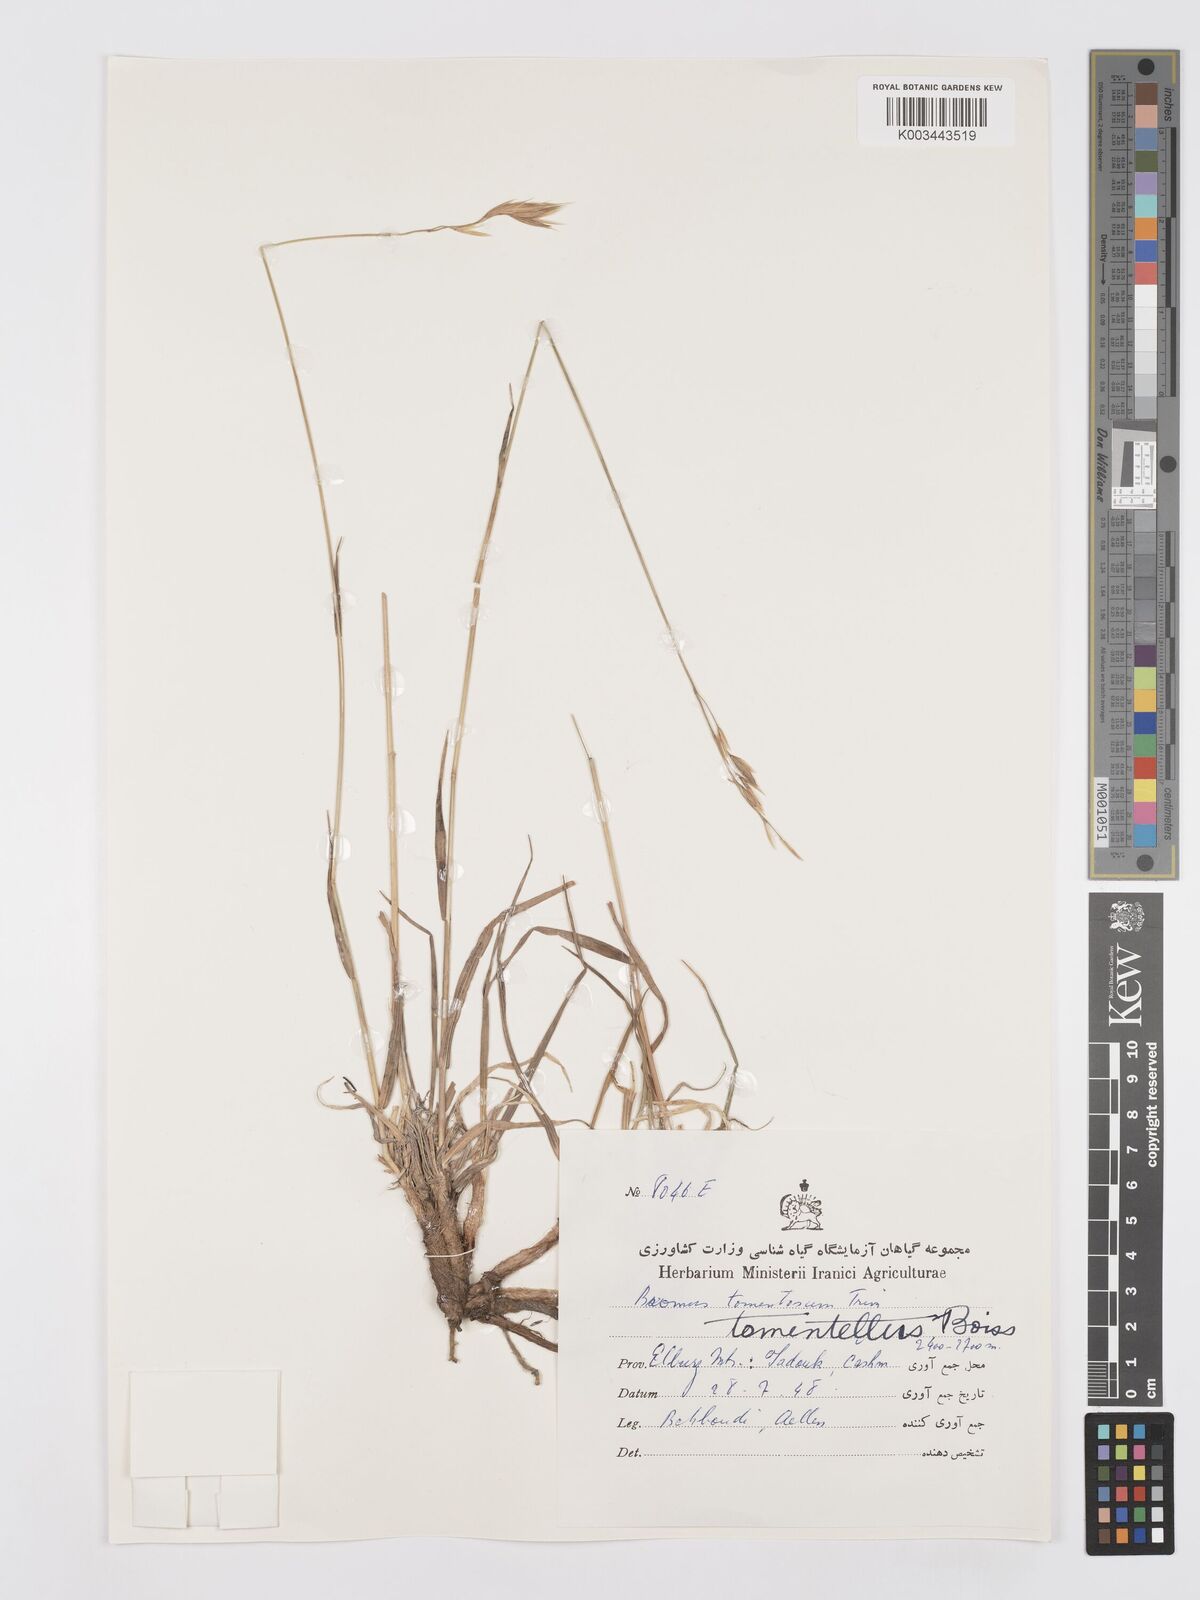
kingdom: Plantae
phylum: Tracheophyta
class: Liliopsida
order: Poales
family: Poaceae
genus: Bromus
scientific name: Bromus tomentellus
